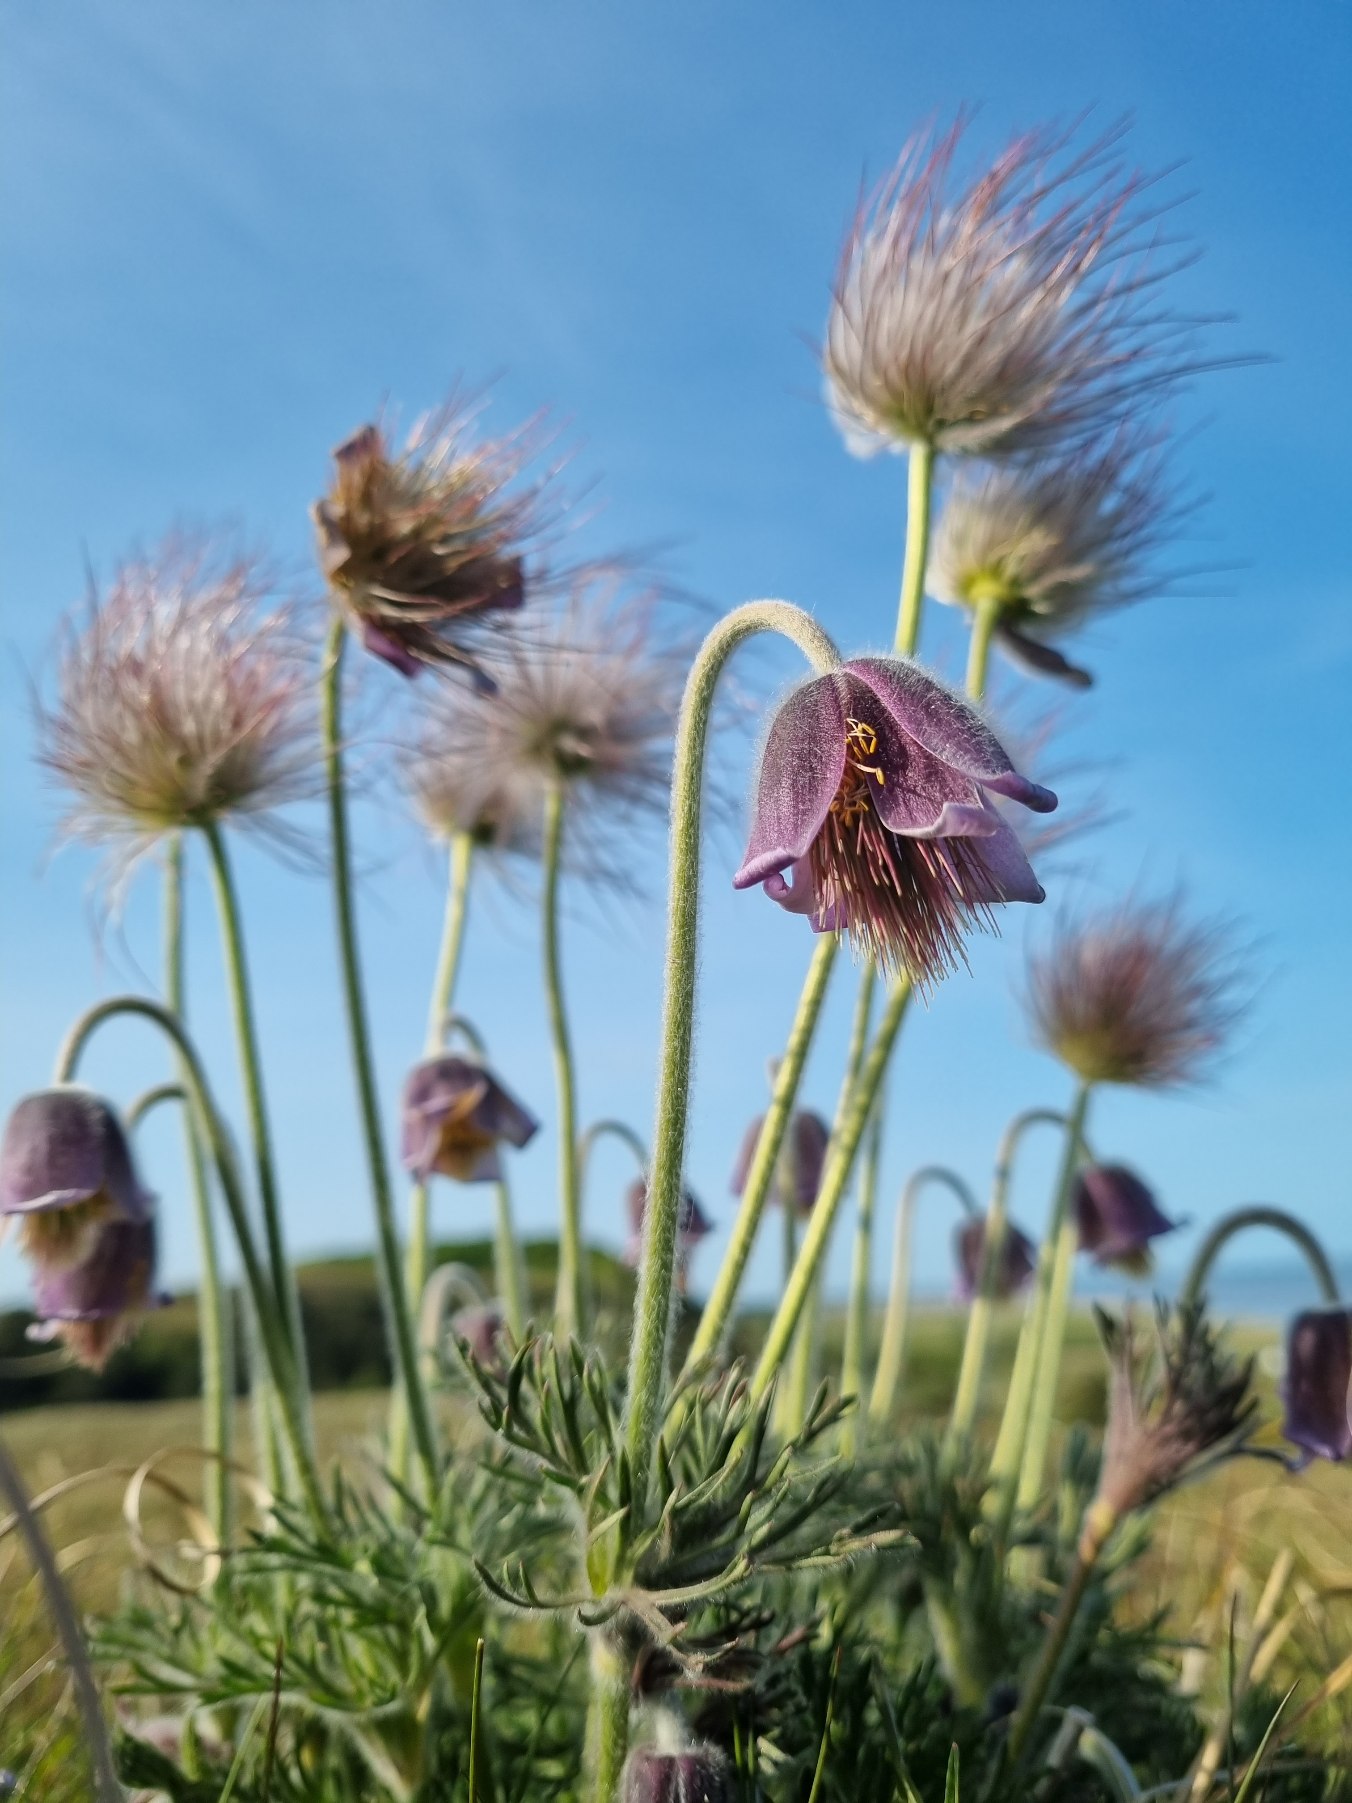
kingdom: Plantae
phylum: Tracheophyta
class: Magnoliopsida
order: Ranunculales
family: Ranunculaceae
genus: Pulsatilla
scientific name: Pulsatilla pratensis
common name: Nikkende kobjælde
